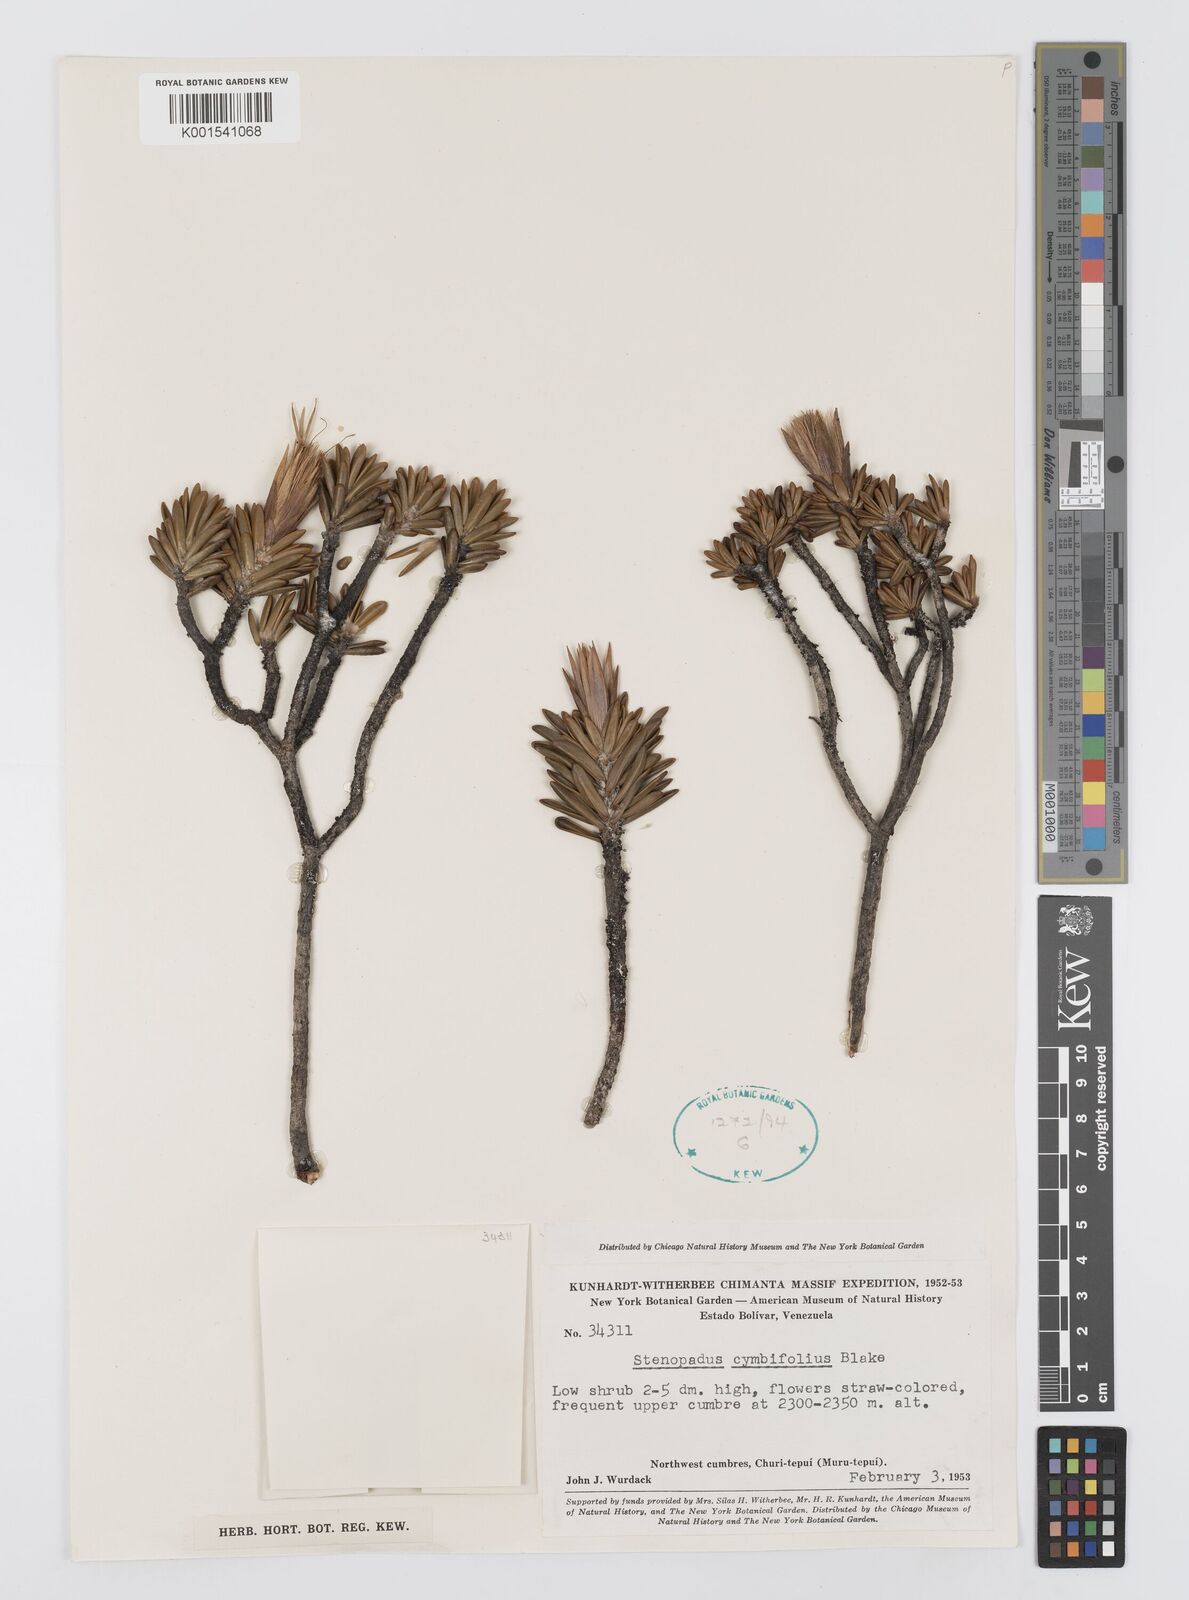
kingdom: Plantae
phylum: Tracheophyta
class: Magnoliopsida
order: Asterales
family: Asteraceae
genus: Stomatochaeta
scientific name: Stomatochaeta cymbifolia
